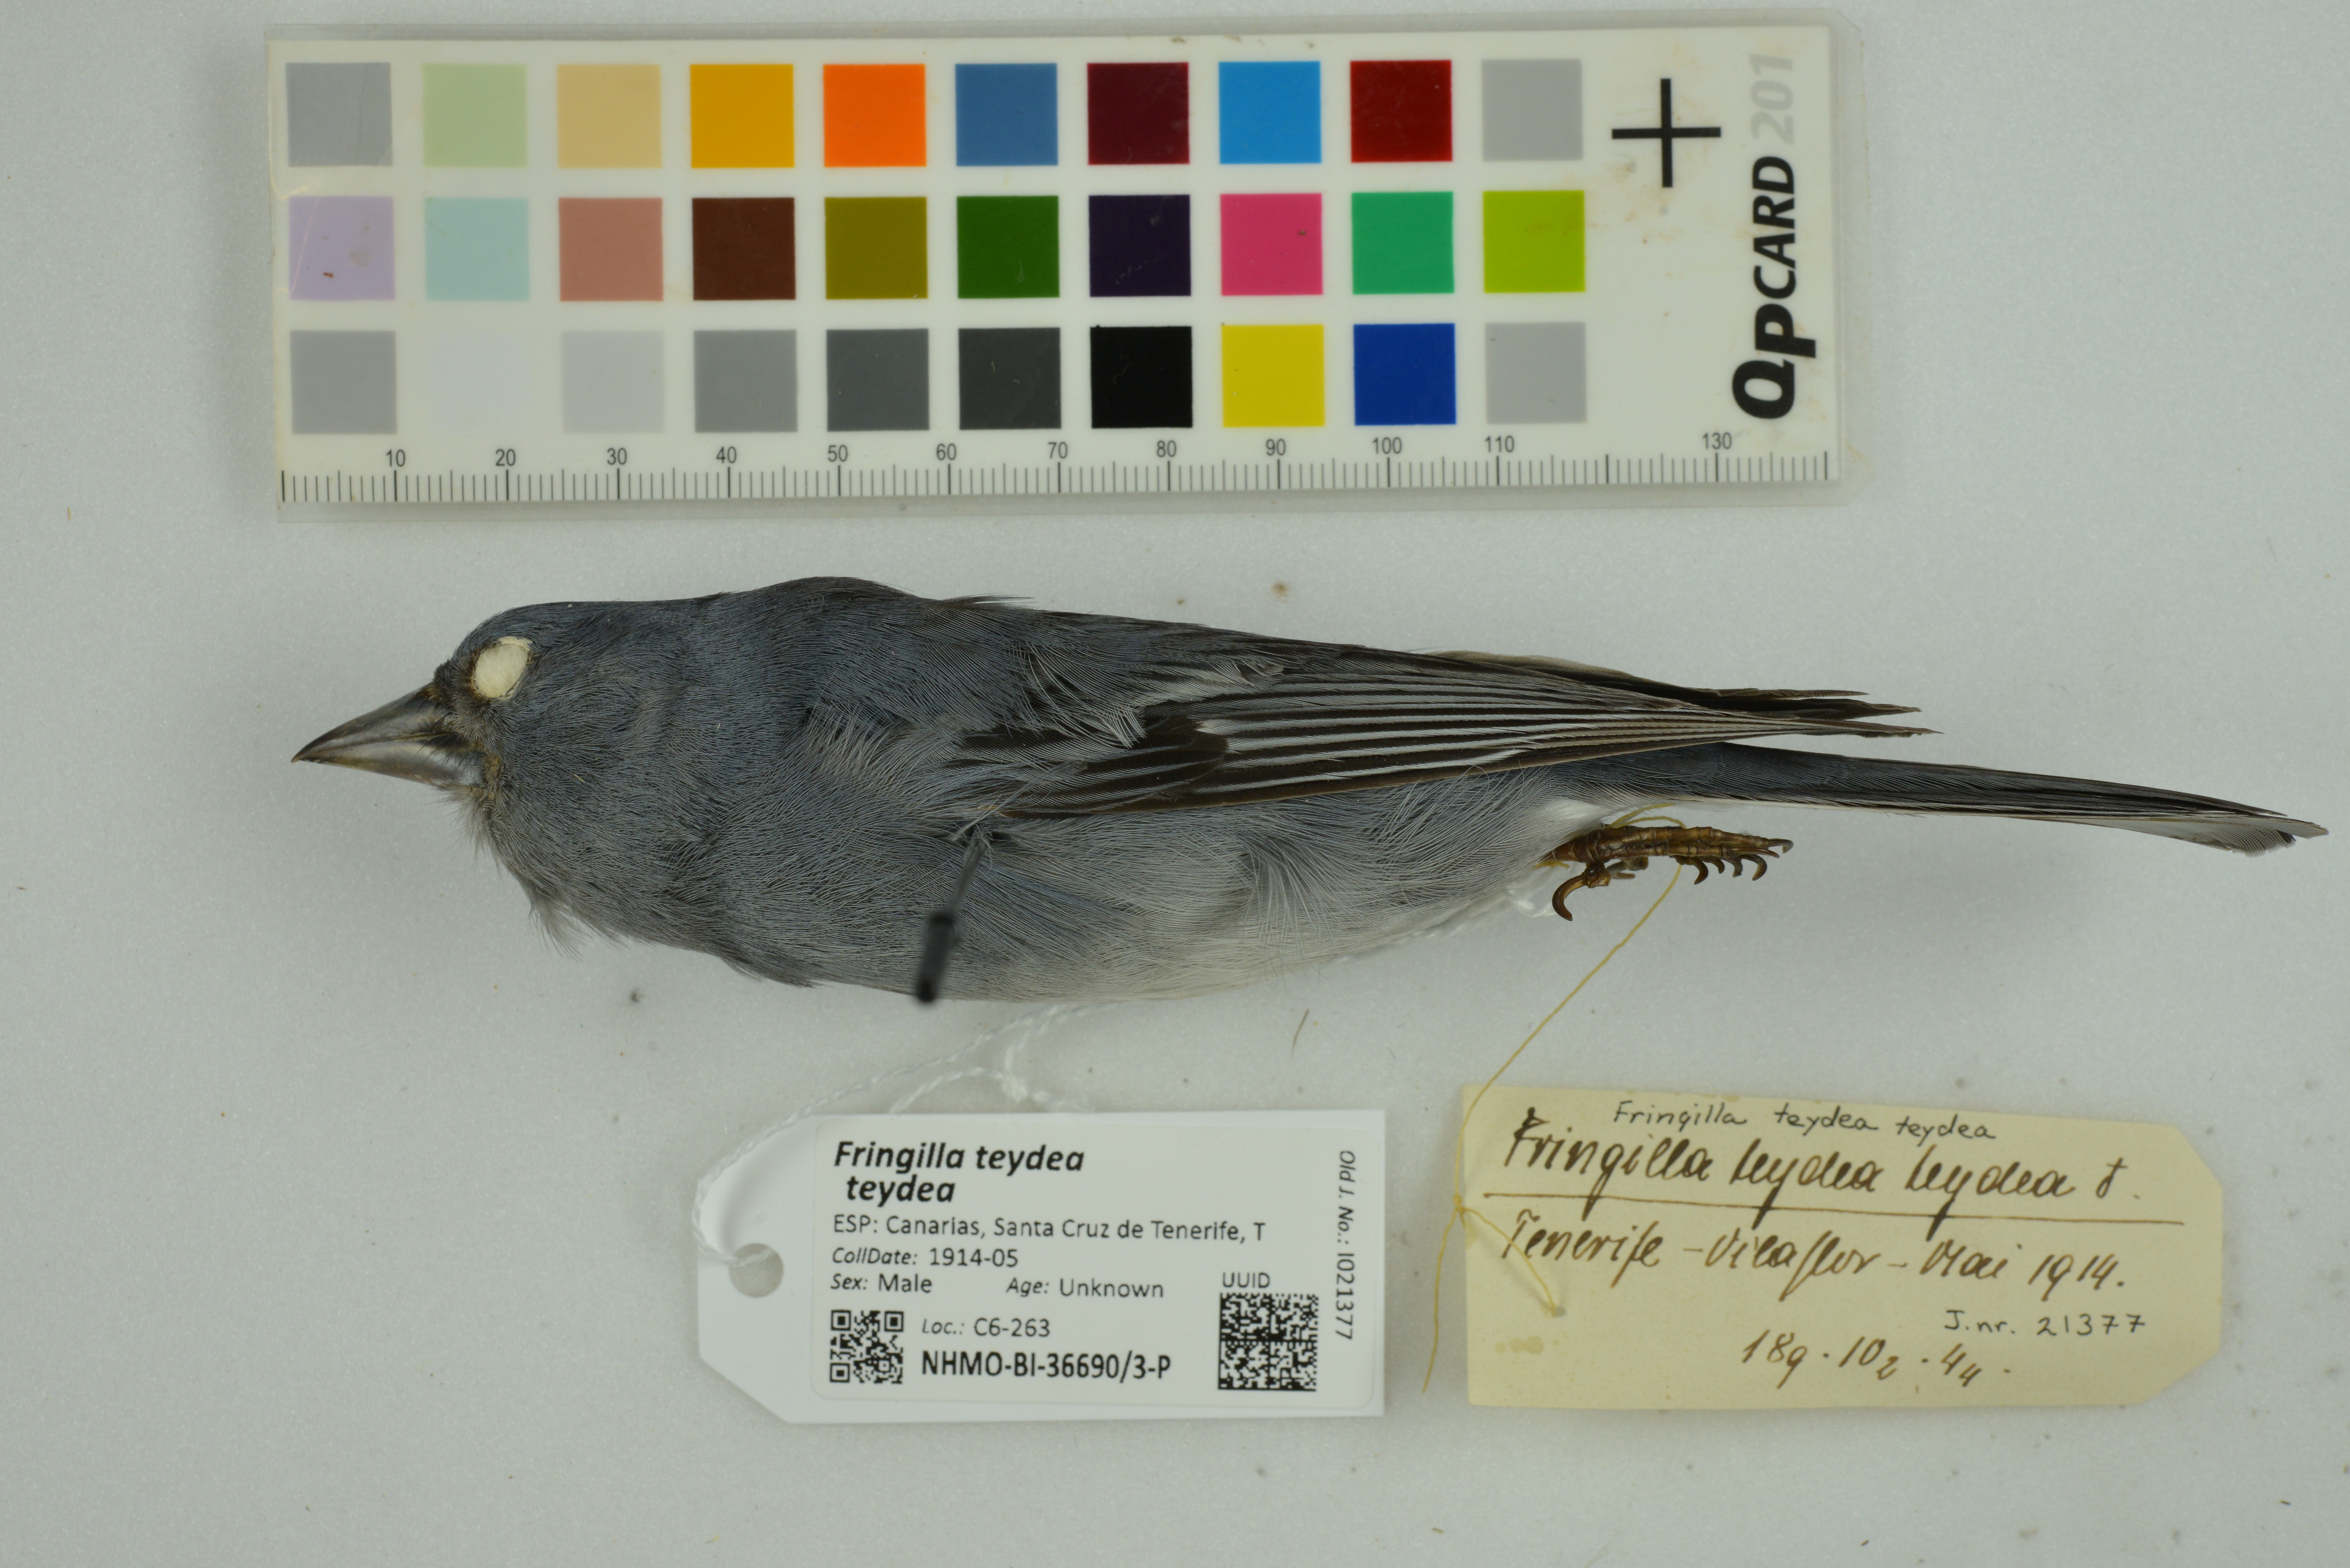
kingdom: Animalia
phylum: Chordata
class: Aves
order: Passeriformes
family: Fringillidae
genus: Fringilla
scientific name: Fringilla teydea
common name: Blue chaffinch
